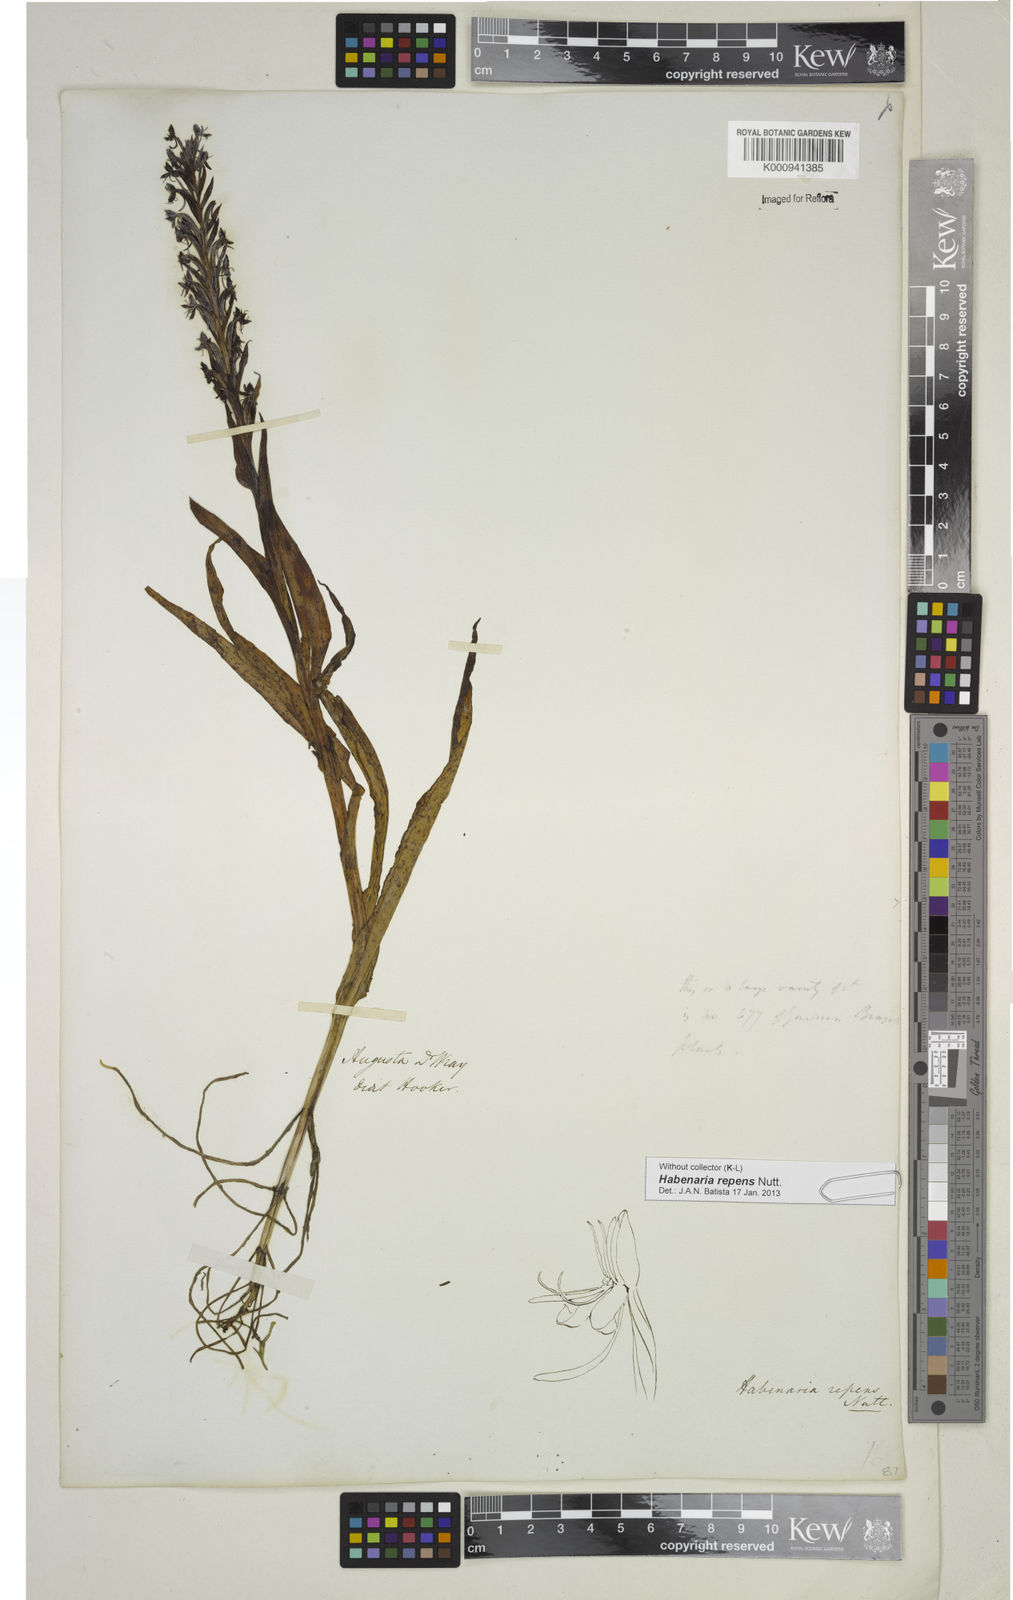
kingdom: Plantae
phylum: Tracheophyta
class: Liliopsida
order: Asparagales
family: Orchidaceae
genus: Habenaria
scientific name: Habenaria repens
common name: Water orchid
